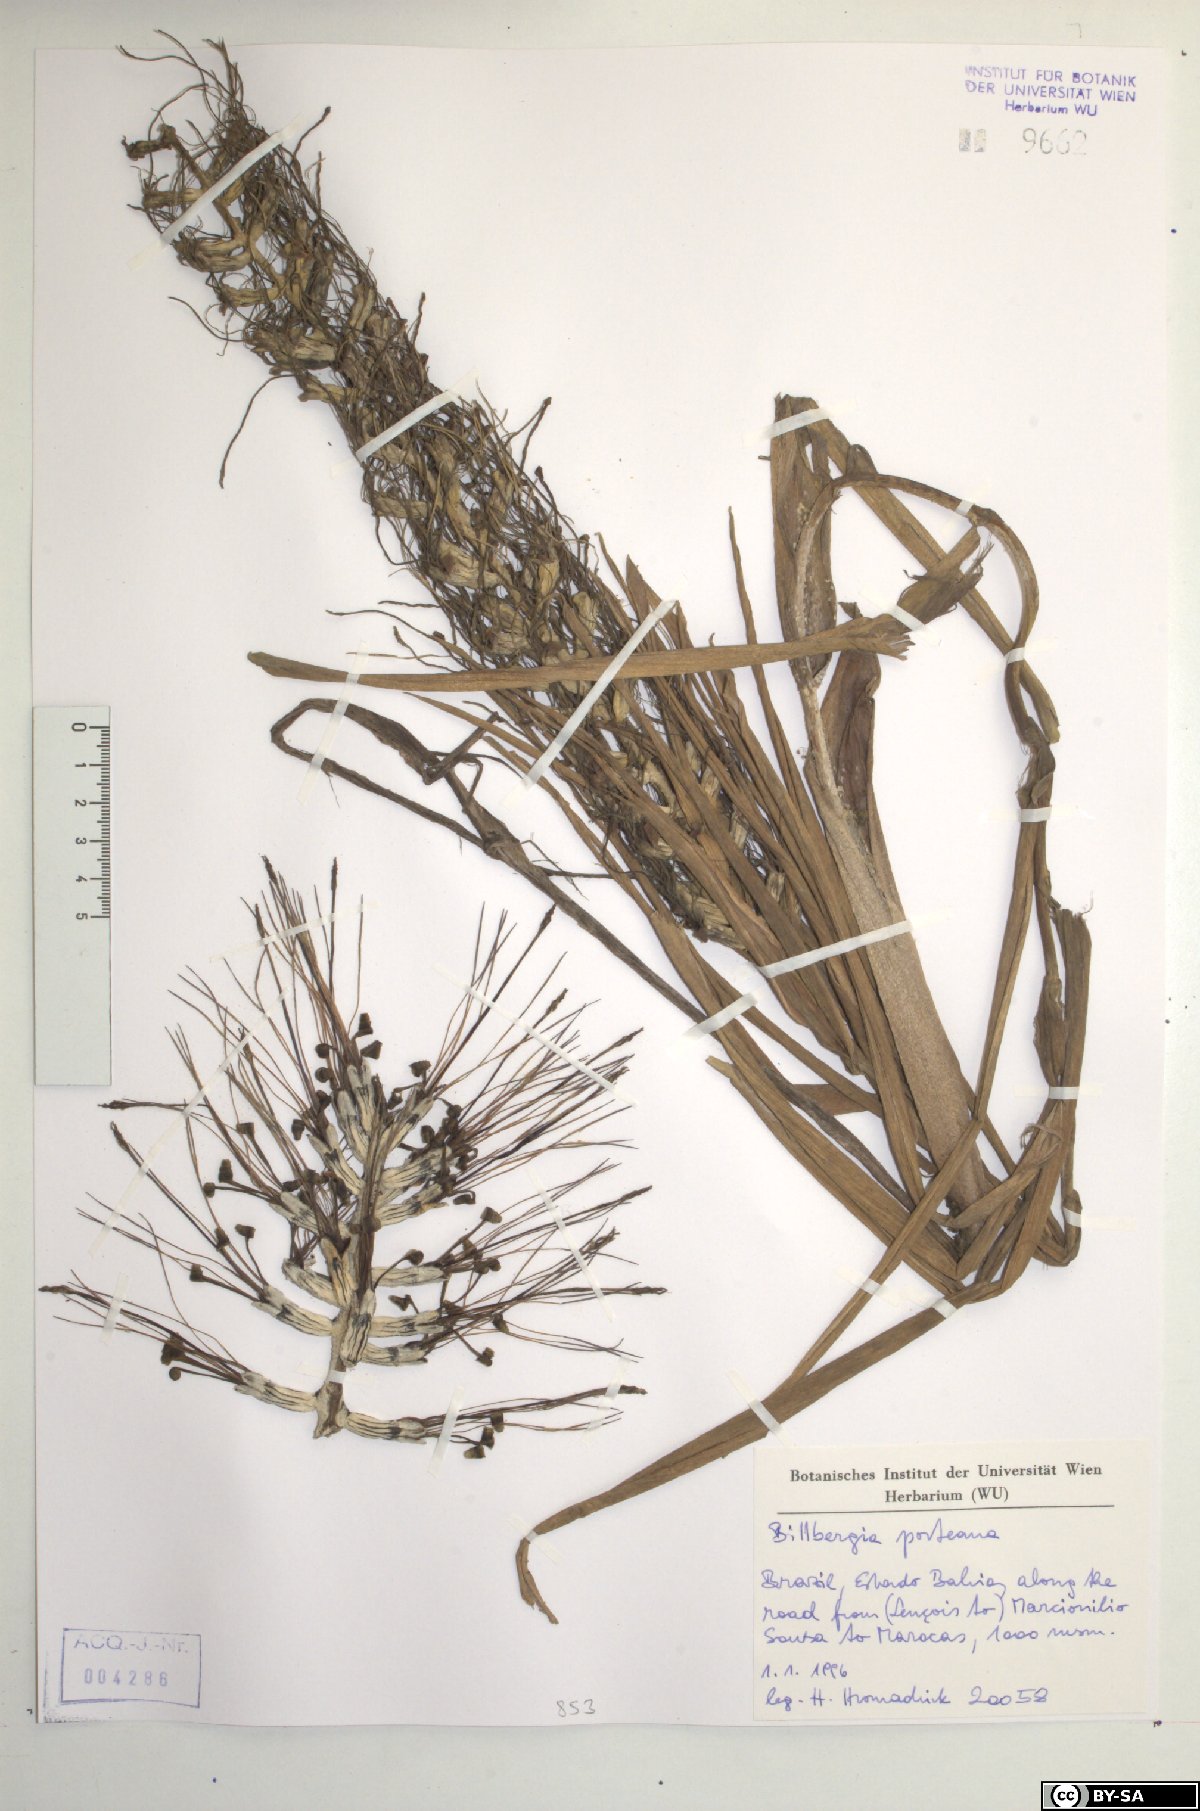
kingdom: Plantae
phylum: Tracheophyta
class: Liliopsida
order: Poales
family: Bromeliaceae
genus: Billbergia
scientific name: Billbergia porteana
